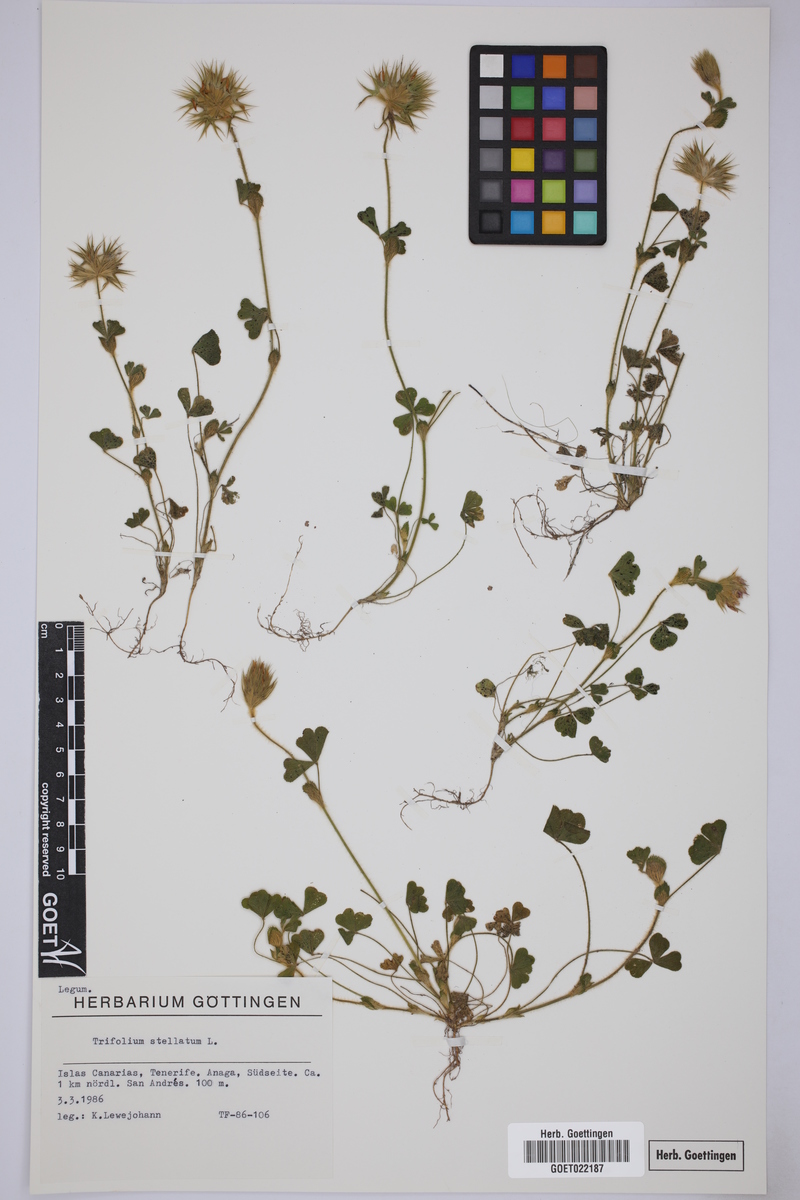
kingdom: Plantae
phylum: Tracheophyta
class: Magnoliopsida
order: Fabales
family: Fabaceae
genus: Trifolium
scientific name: Trifolium stellatum
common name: Starry clover
